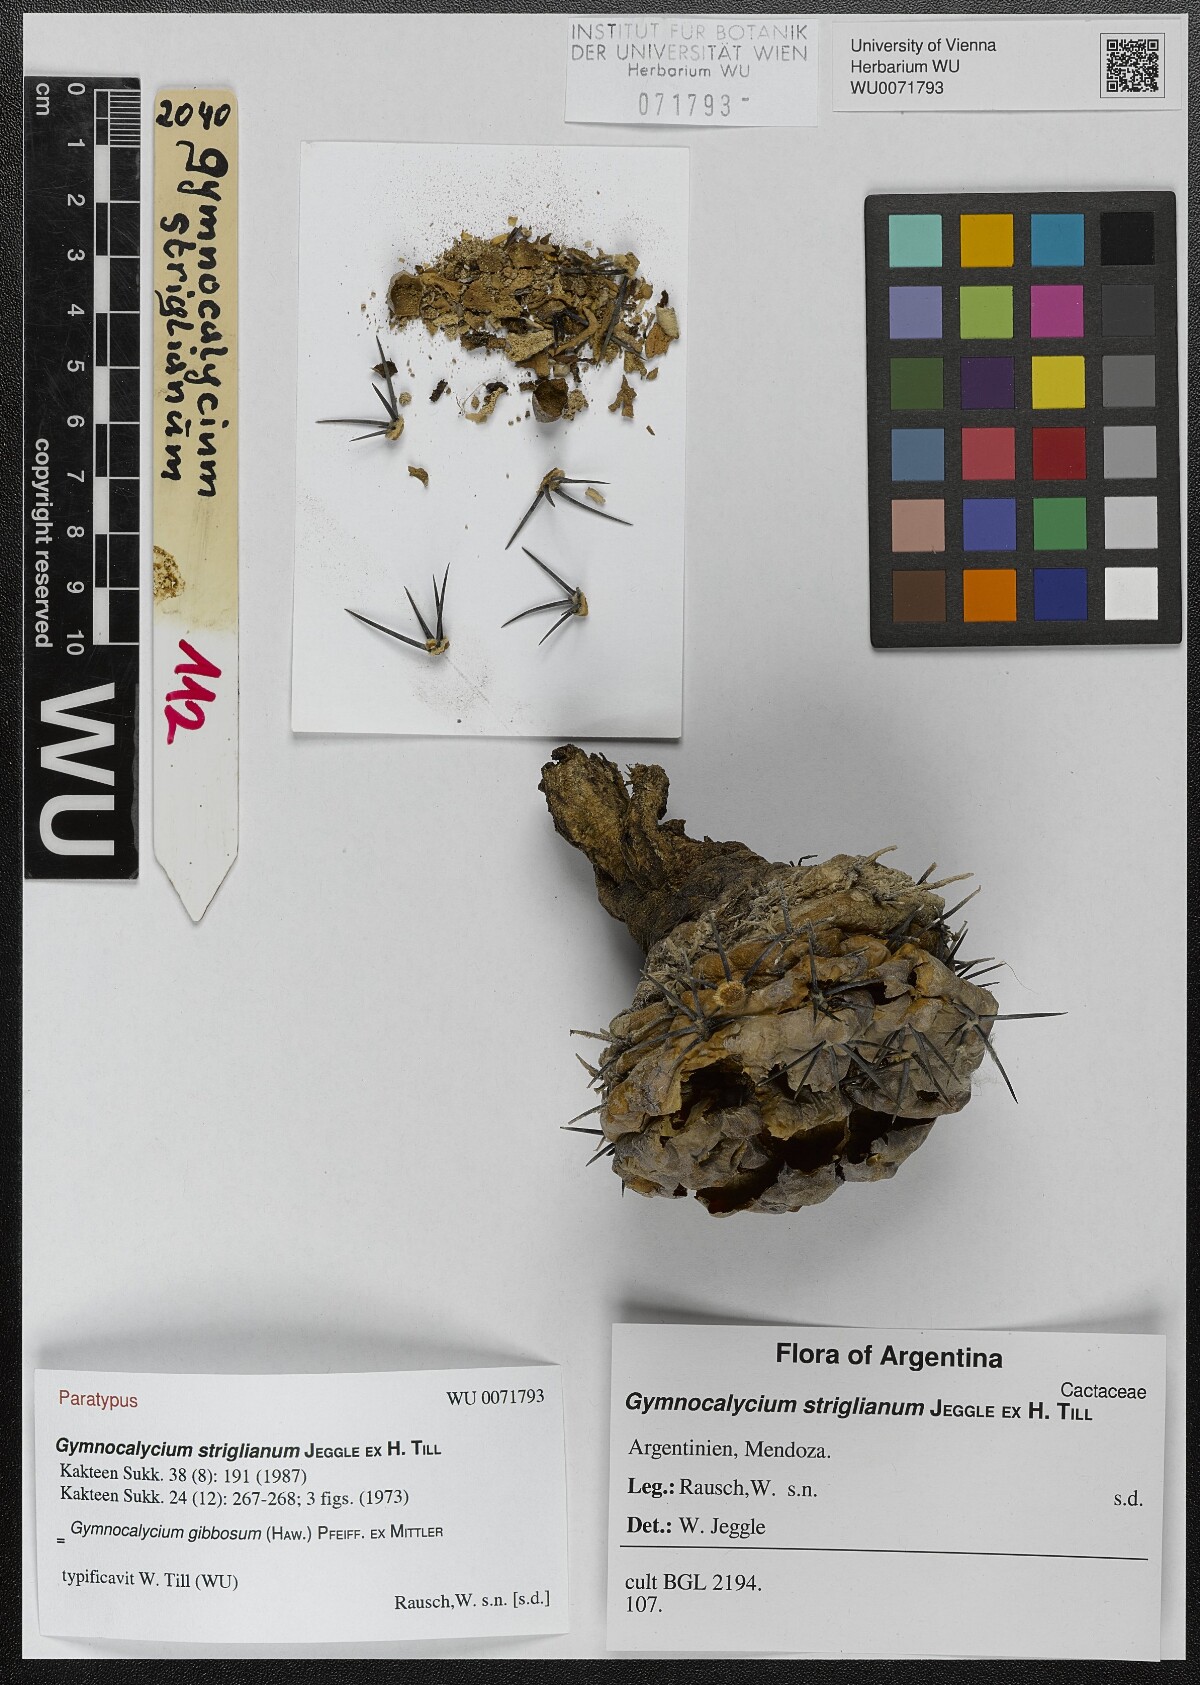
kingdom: Plantae
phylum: Tracheophyta
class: Magnoliopsida
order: Caryophyllales
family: Cactaceae
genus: Gymnocalycium
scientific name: Gymnocalycium striglianum
